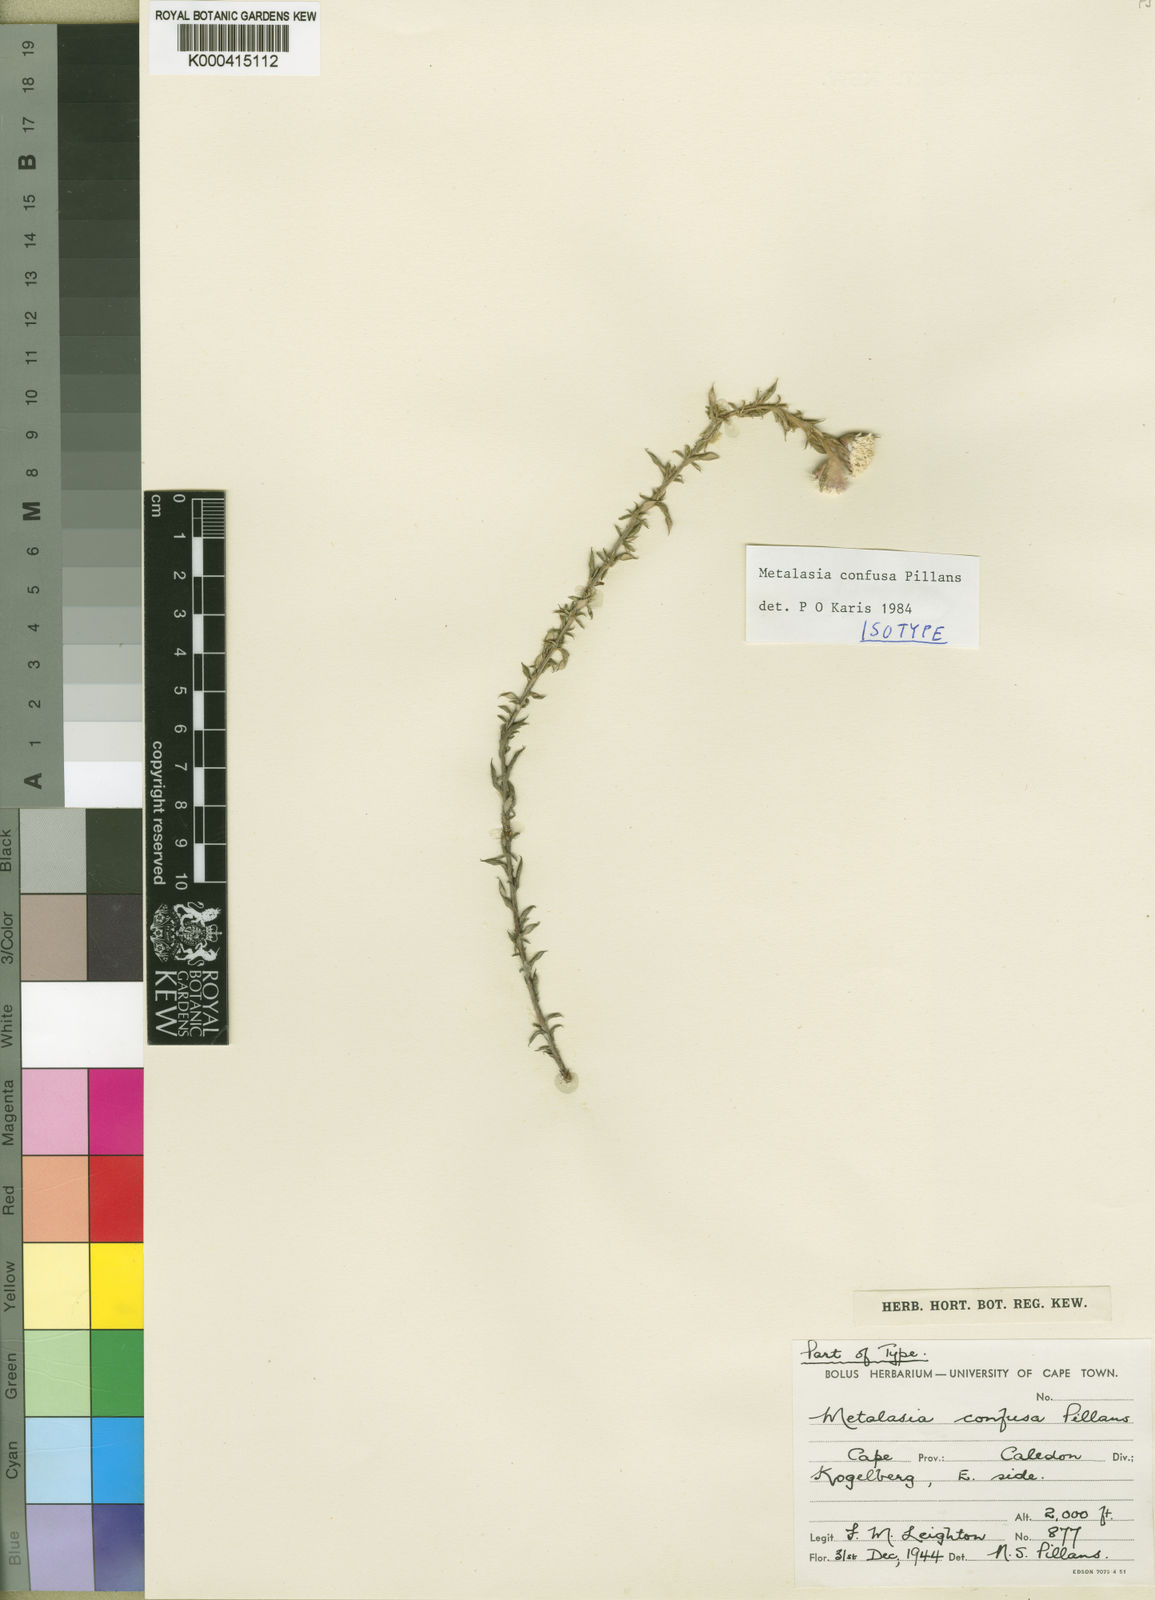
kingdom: Plantae
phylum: Tracheophyta
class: Magnoliopsida
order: Asterales
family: Asteraceae
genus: Metalasia
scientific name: Metalasia confusa
